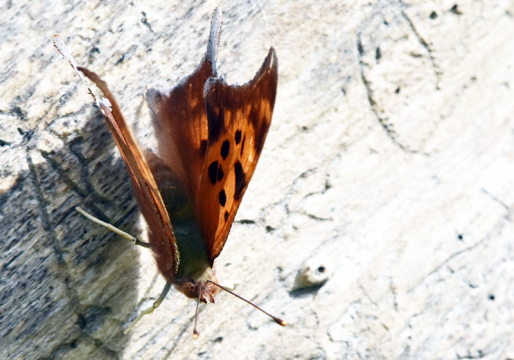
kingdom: Animalia
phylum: Arthropoda
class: Insecta
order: Lepidoptera
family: Nymphalidae
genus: Polygonia
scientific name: Polygonia interrogationis
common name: Question Mark
